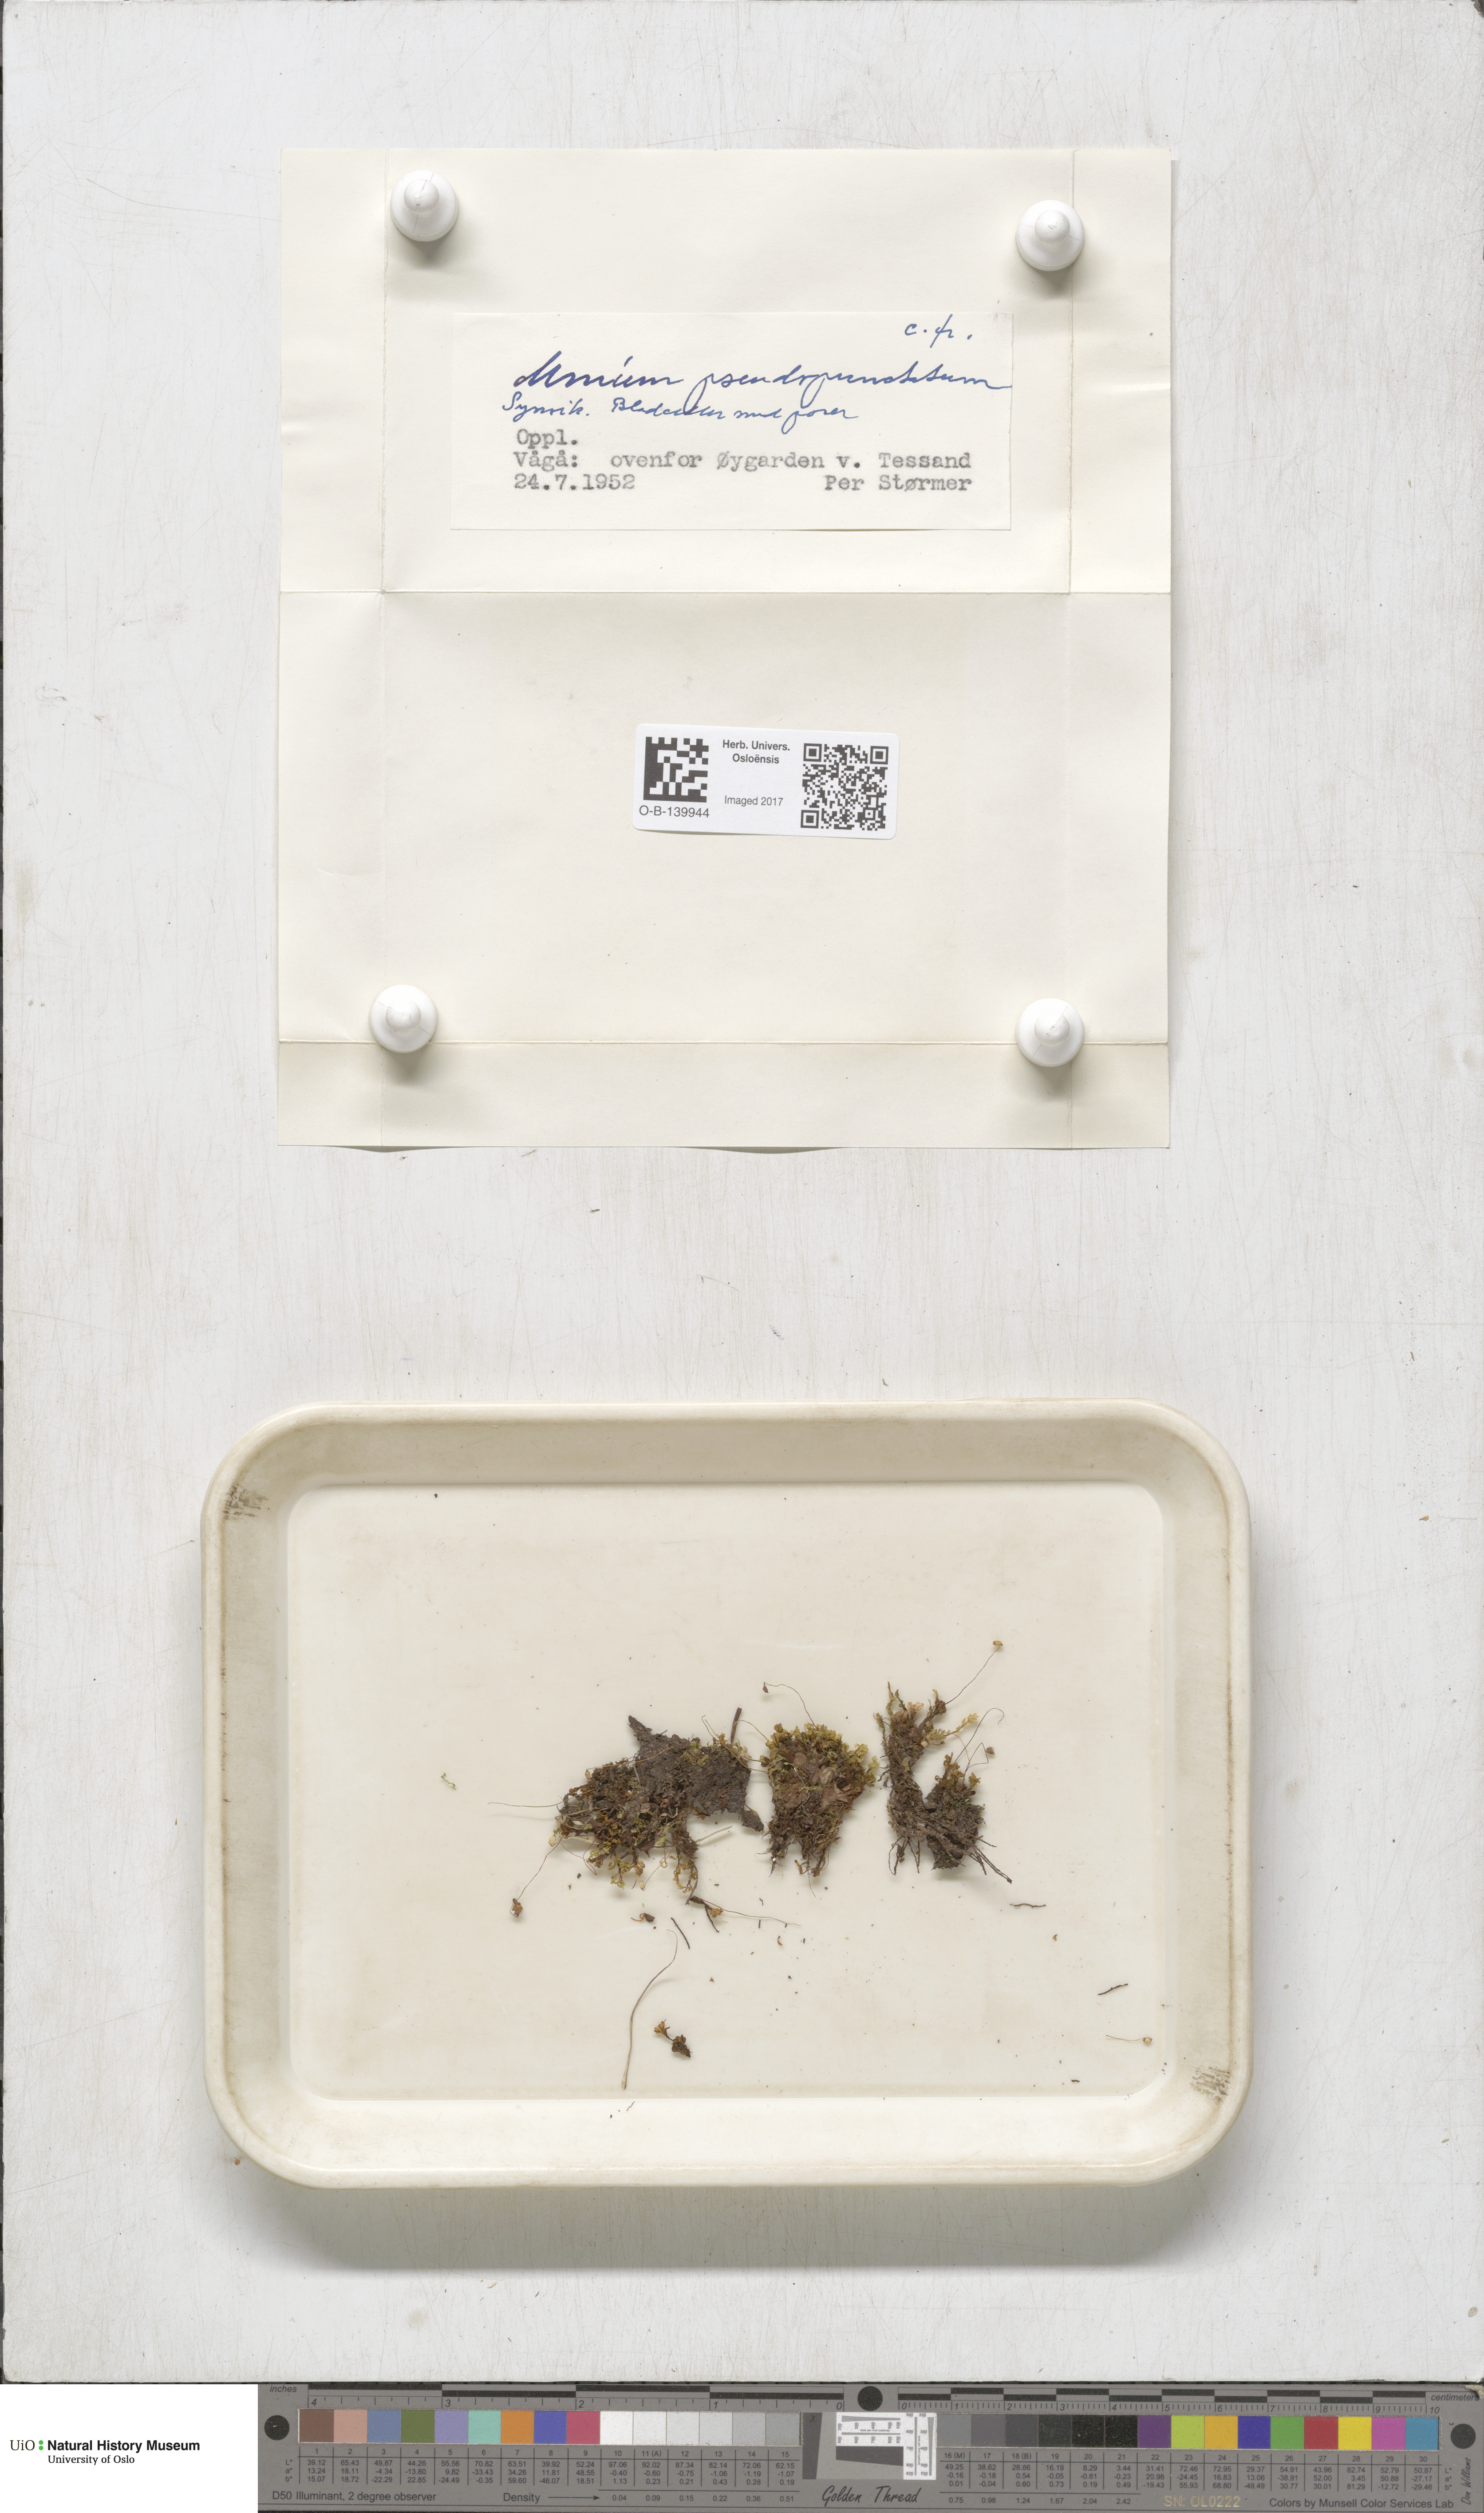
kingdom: Plantae
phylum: Bryophyta
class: Bryopsida
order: Bryales
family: Mniaceae
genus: Rhizomnium
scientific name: Rhizomnium pseudopunctatum
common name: Felted leafy moss
